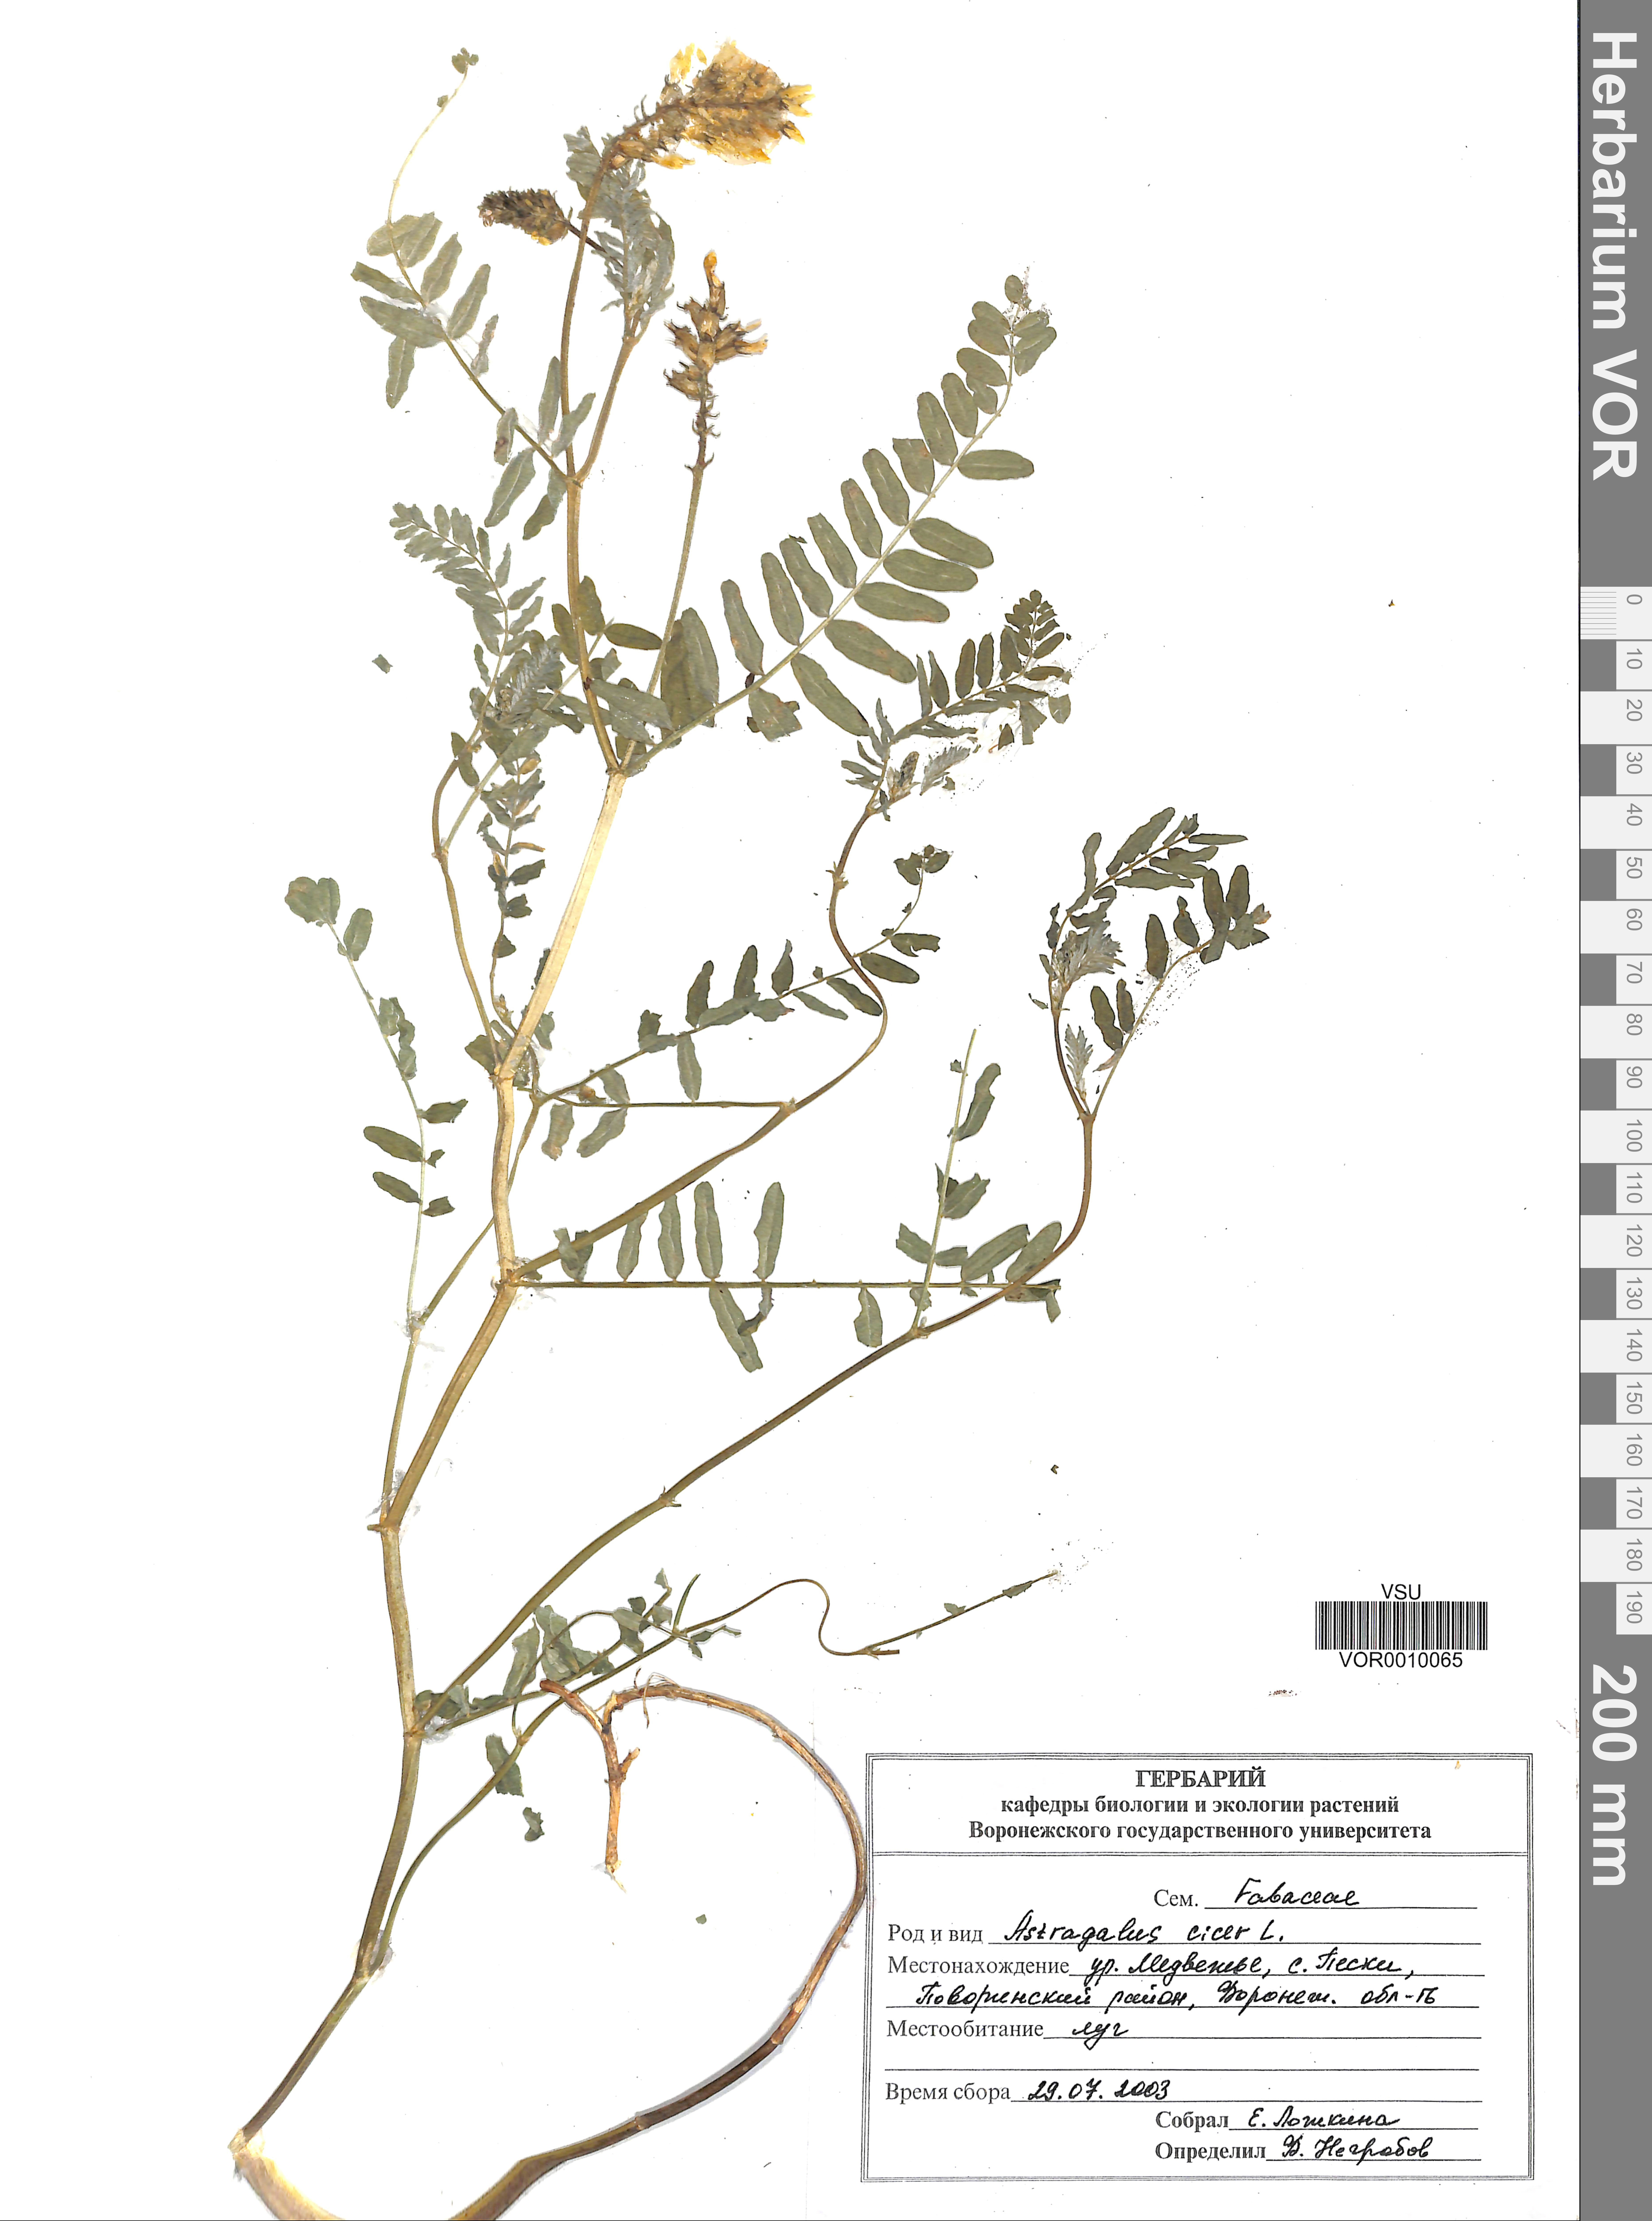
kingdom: Plantae
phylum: Tracheophyta
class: Magnoliopsida
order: Fabales
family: Fabaceae
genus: Astragalus
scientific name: Astragalus cicer
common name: Chick-pea milk-vetch
